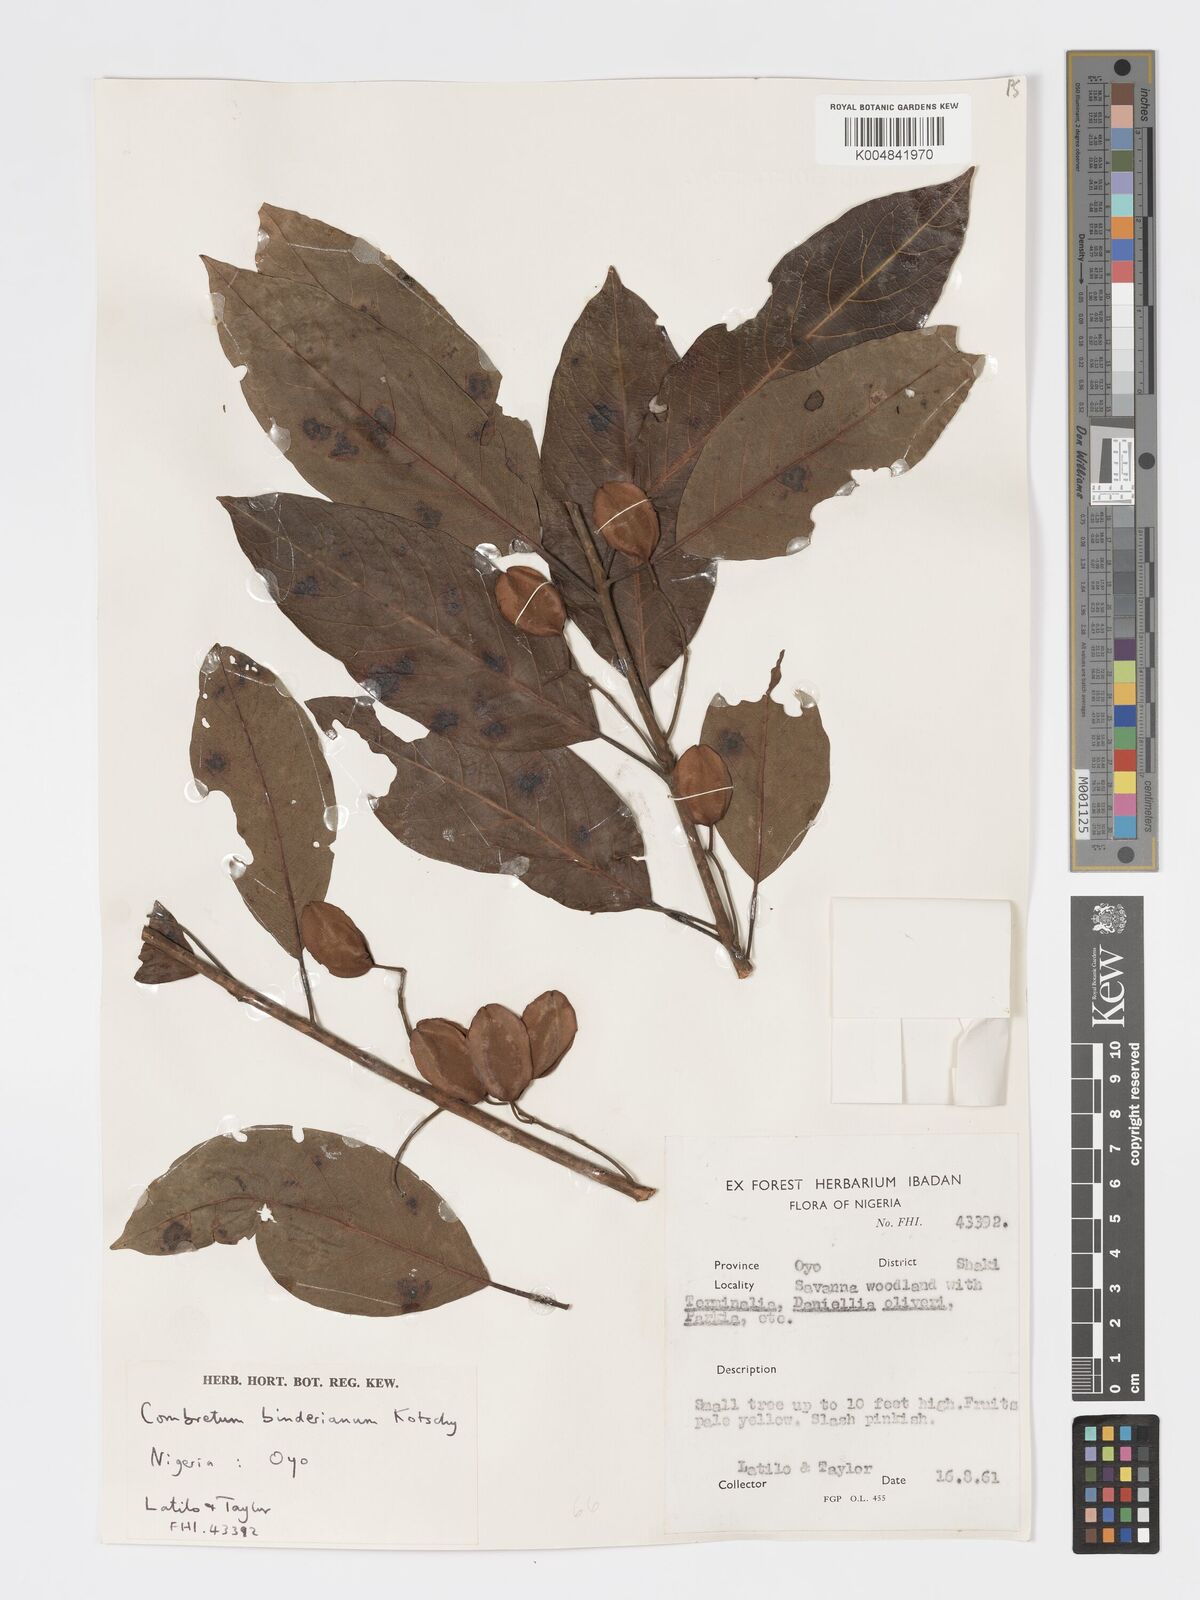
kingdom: Plantae
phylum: Tracheophyta
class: Magnoliopsida
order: Myrtales
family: Combretaceae
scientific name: Combretaceae
